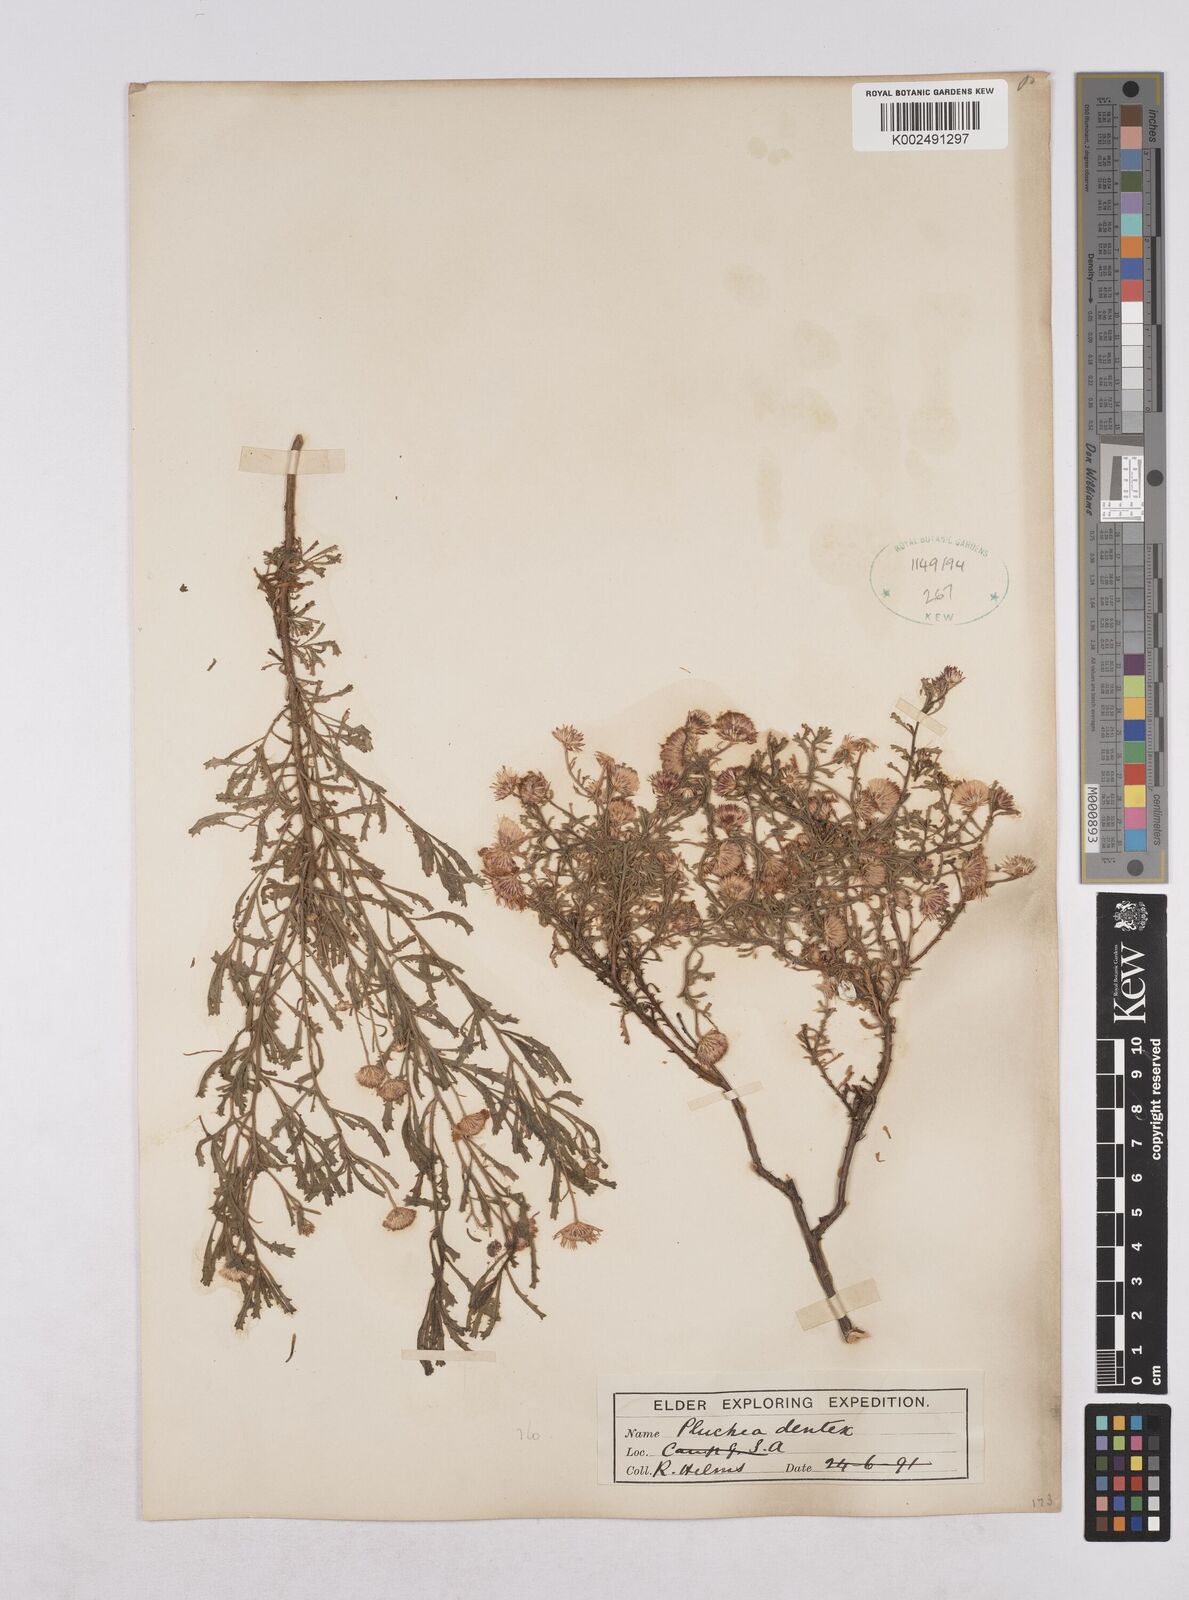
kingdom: Plantae
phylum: Tracheophyta
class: Magnoliopsida
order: Asterales
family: Asteraceae
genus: Pluchea
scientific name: Pluchea dentex
